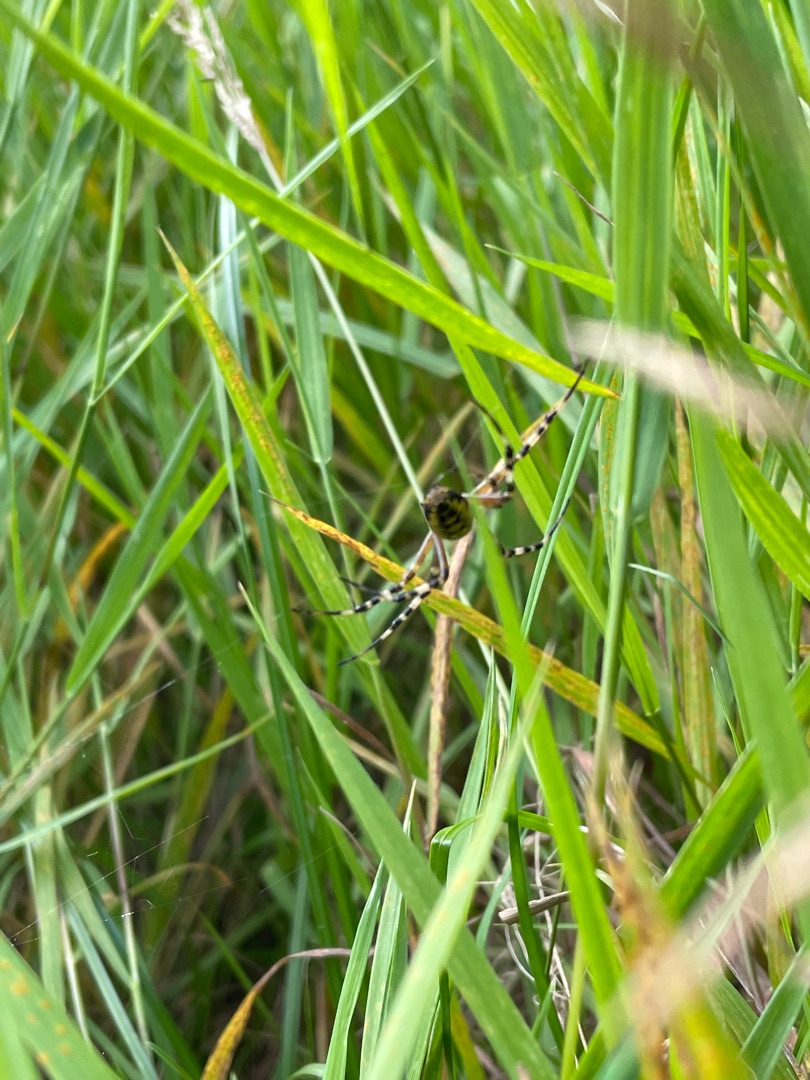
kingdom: Animalia
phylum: Arthropoda
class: Arachnida
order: Araneae
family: Araneidae
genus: Argiope
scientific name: Argiope bruennichi
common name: Hvepseedderkop
